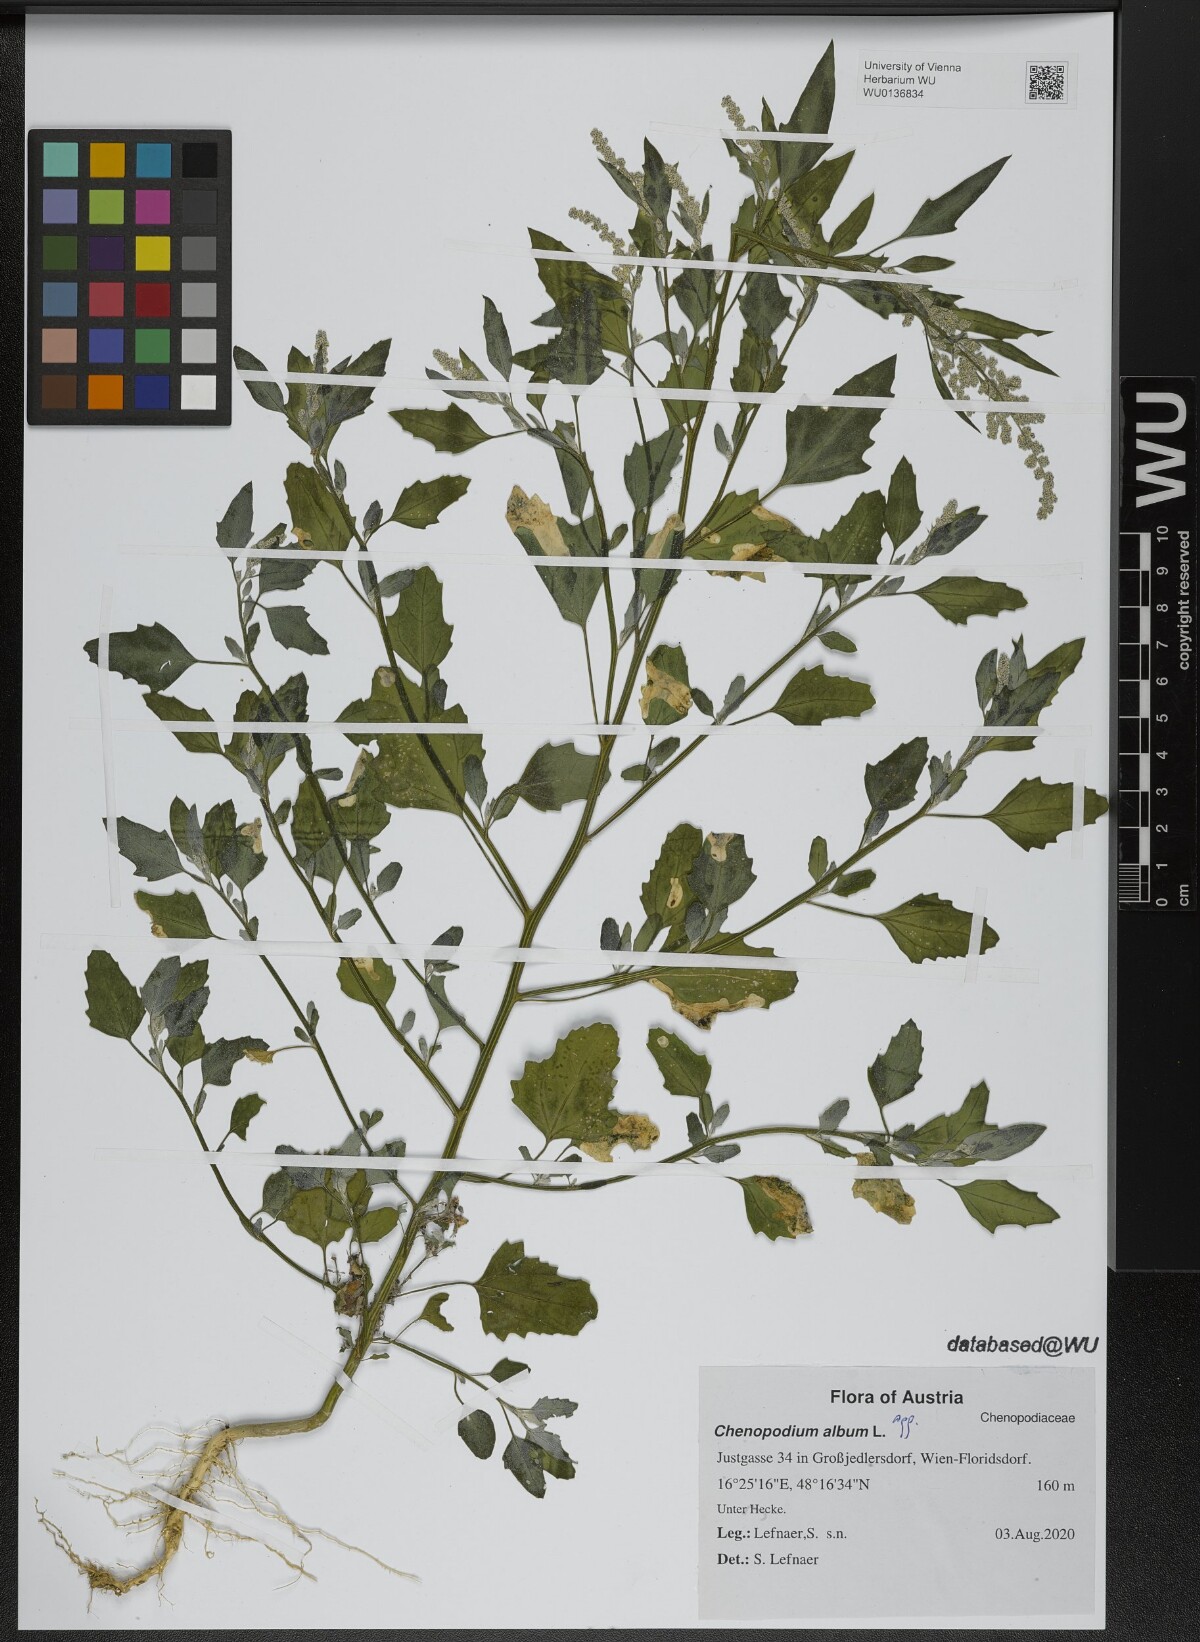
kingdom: Plantae
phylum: Tracheophyta
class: Magnoliopsida
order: Caryophyllales
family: Amaranthaceae
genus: Chenopodium
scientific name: Chenopodium album
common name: Fat-hen
